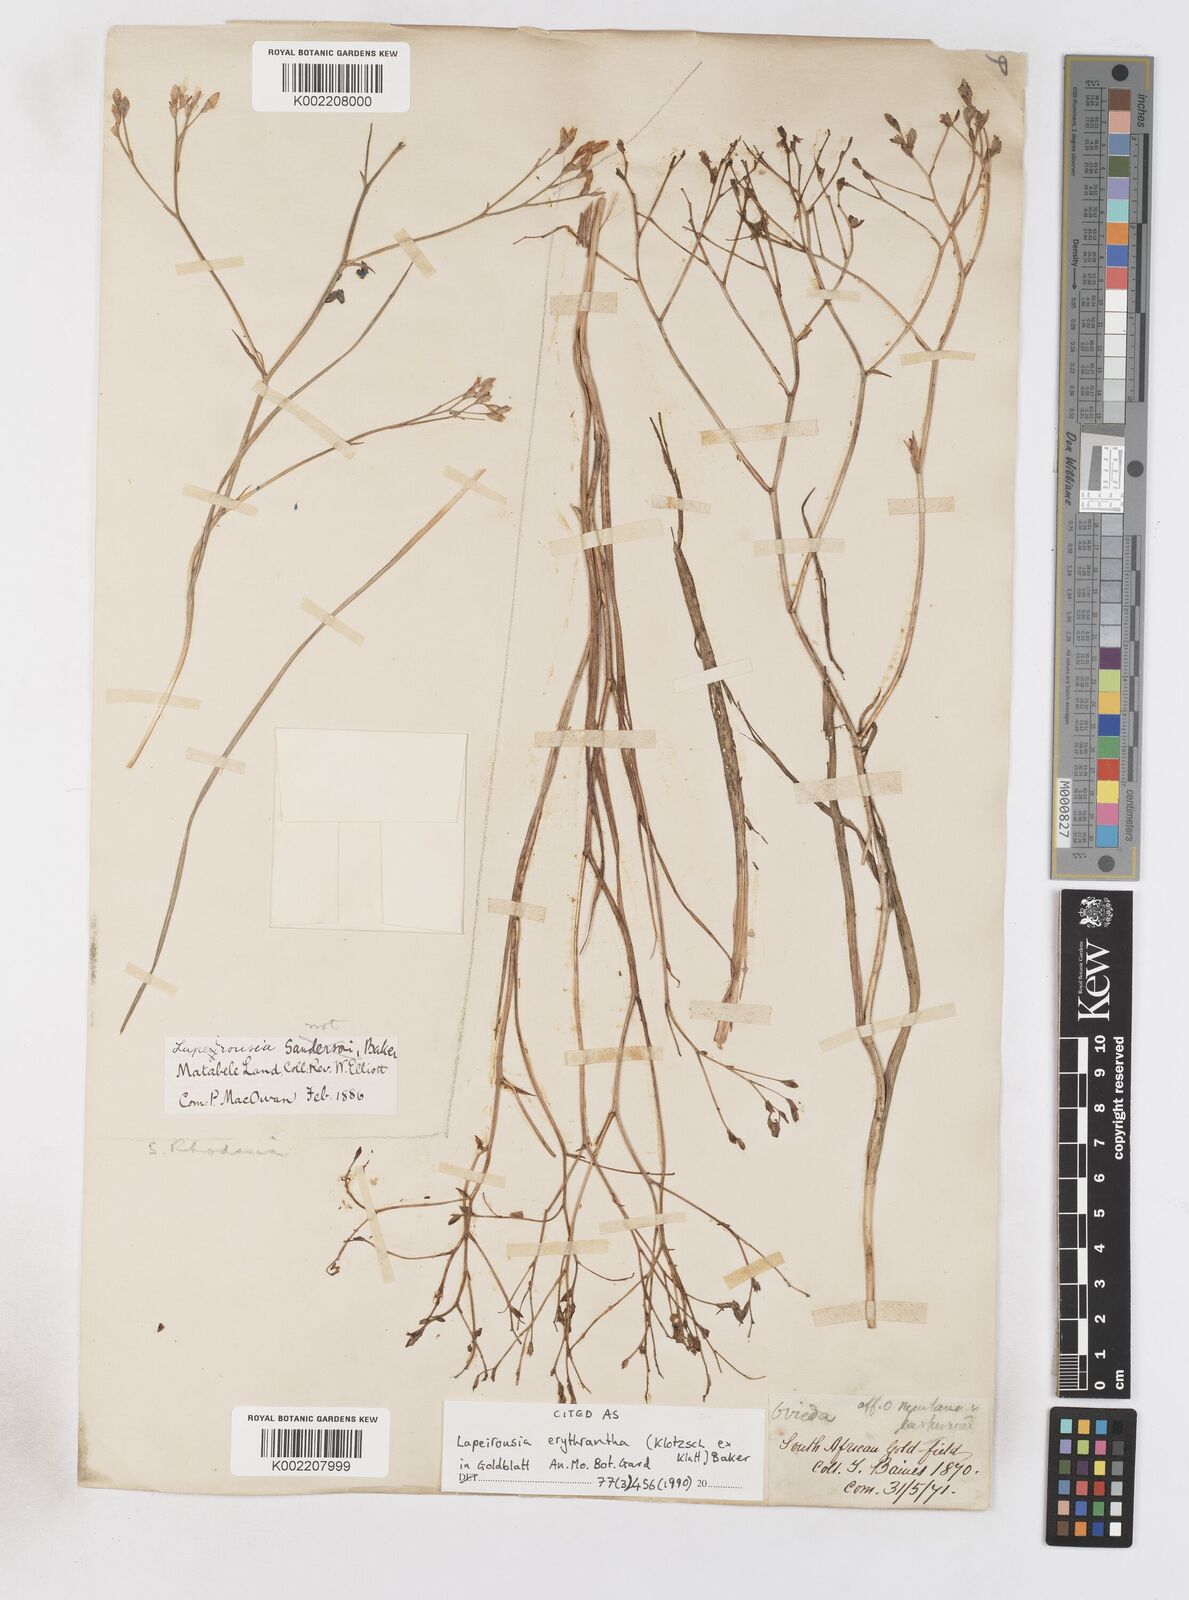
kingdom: Plantae
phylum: Tracheophyta
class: Liliopsida
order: Asparagales
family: Iridaceae
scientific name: Iridaceae
